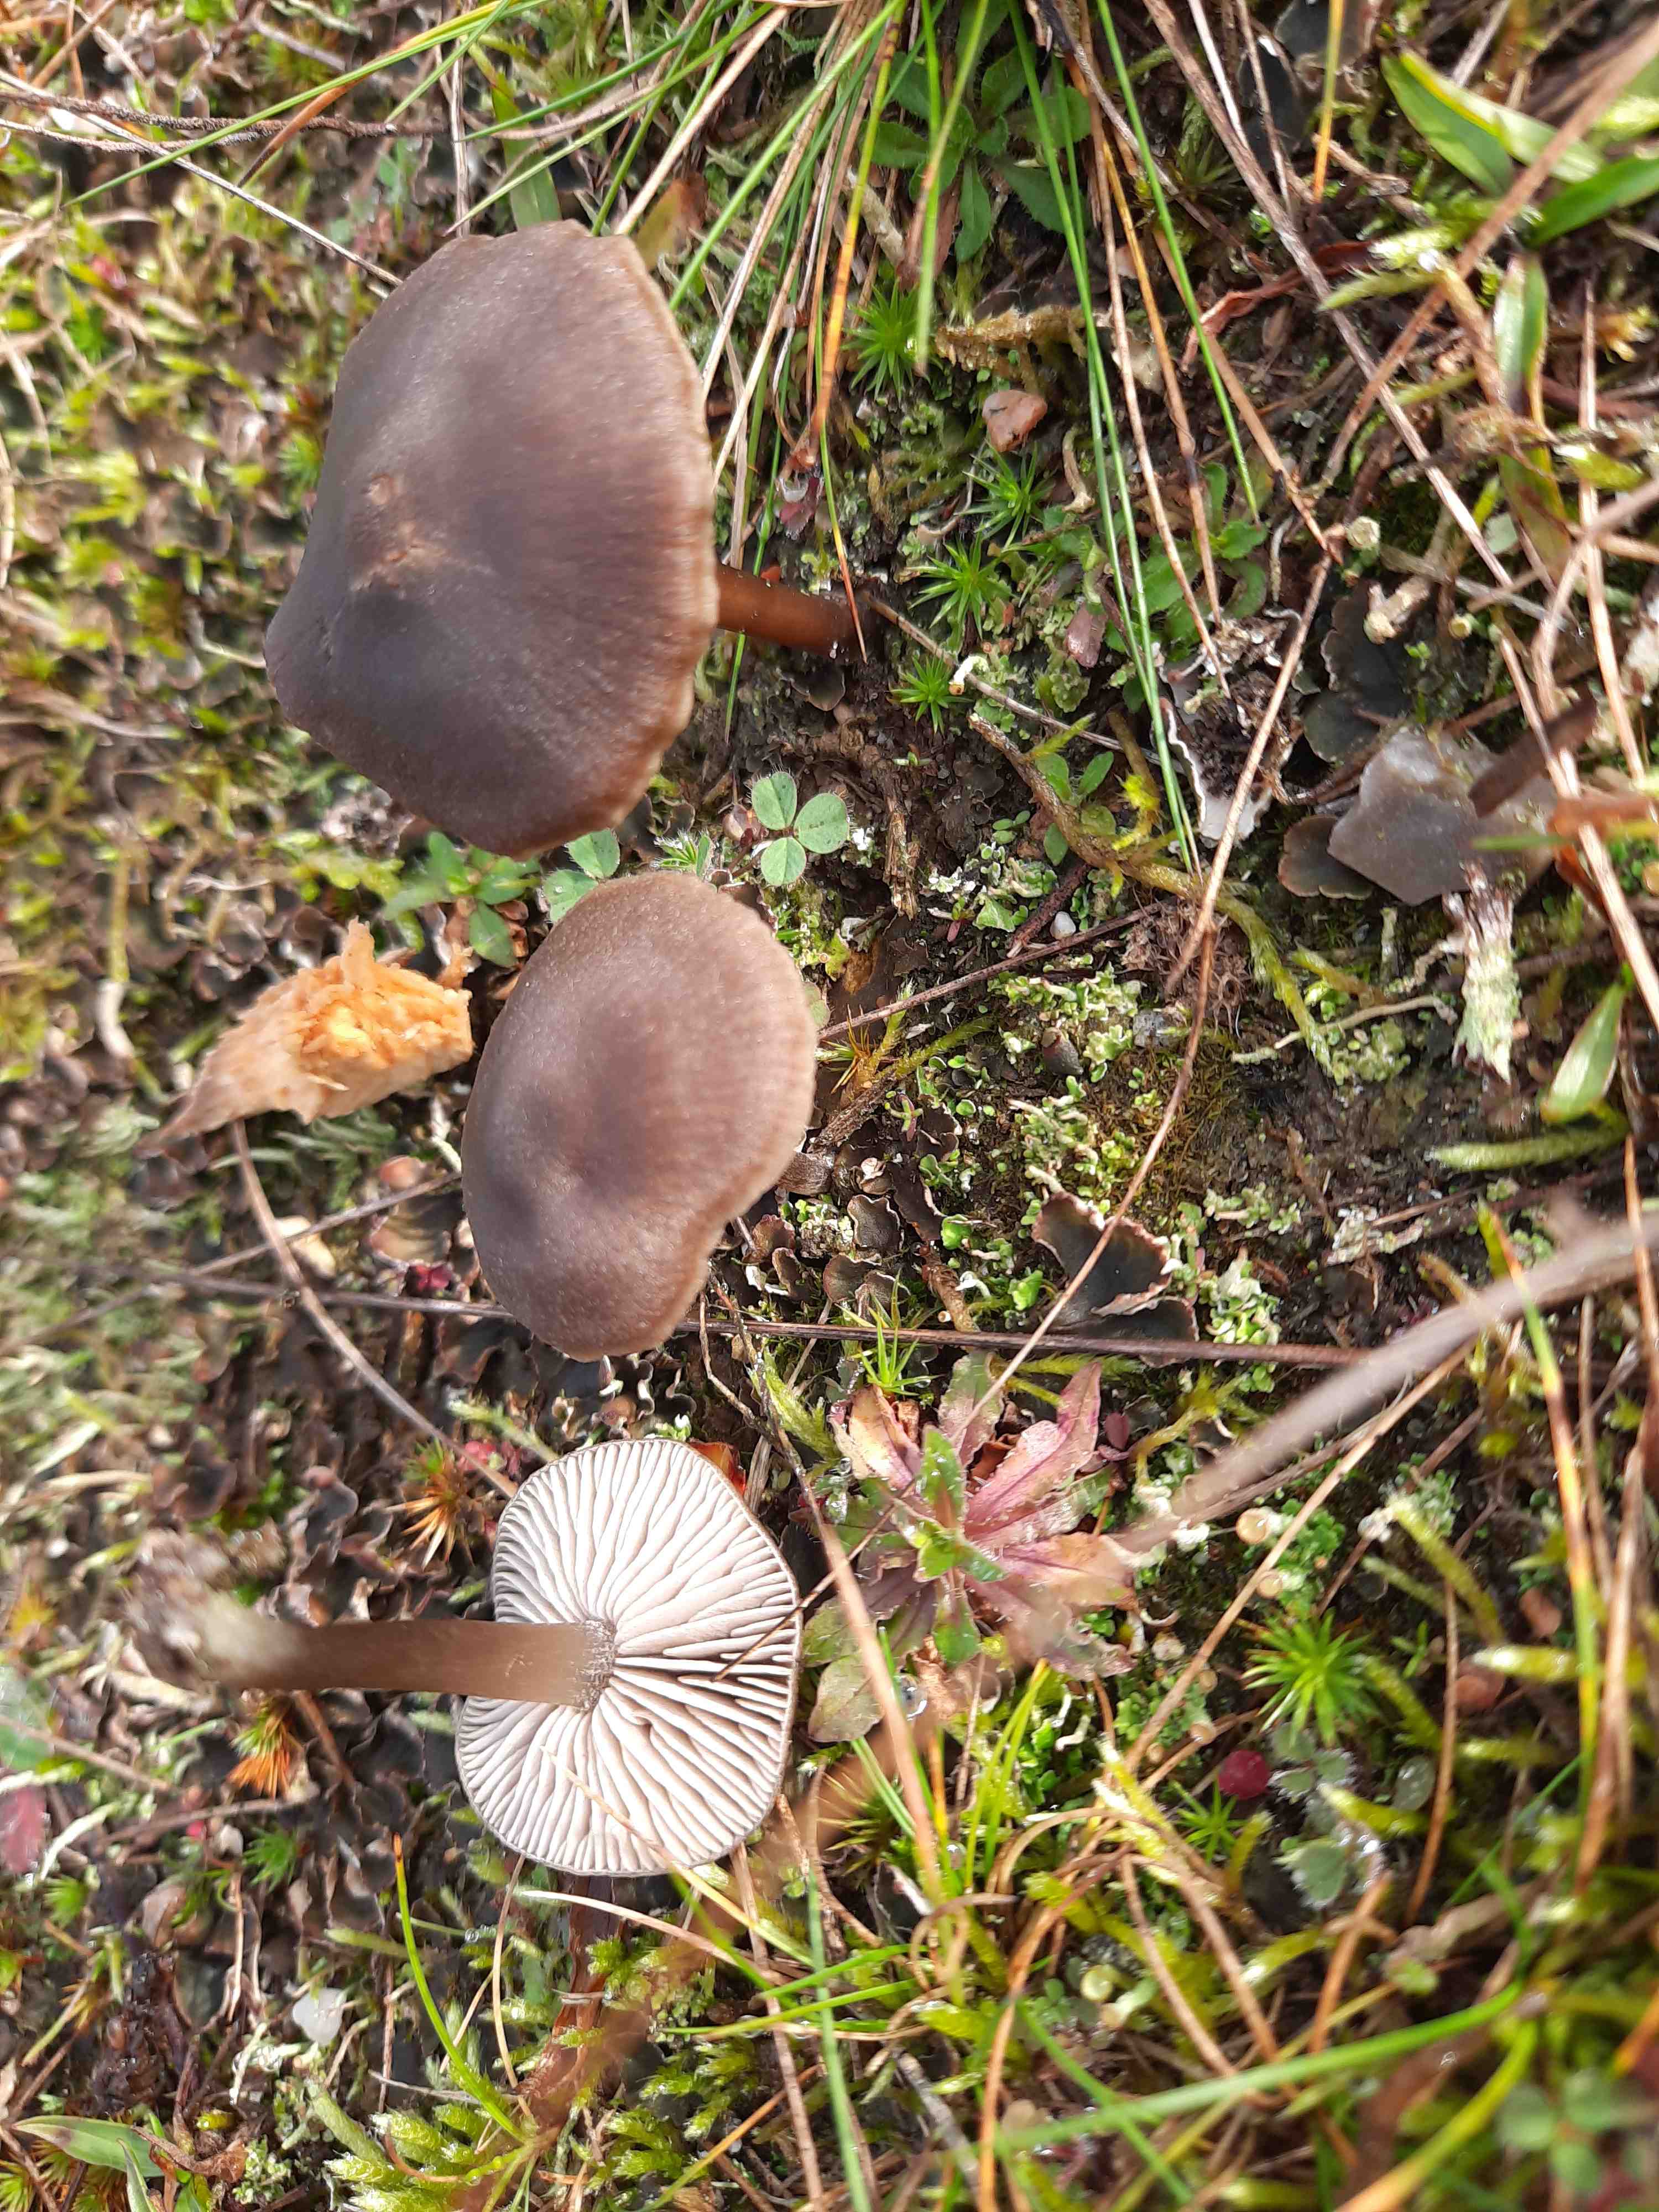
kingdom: Fungi
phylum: Basidiomycota
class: Agaricomycetes
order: Agaricales
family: Entolomataceae
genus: Entoloma
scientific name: Entoloma
